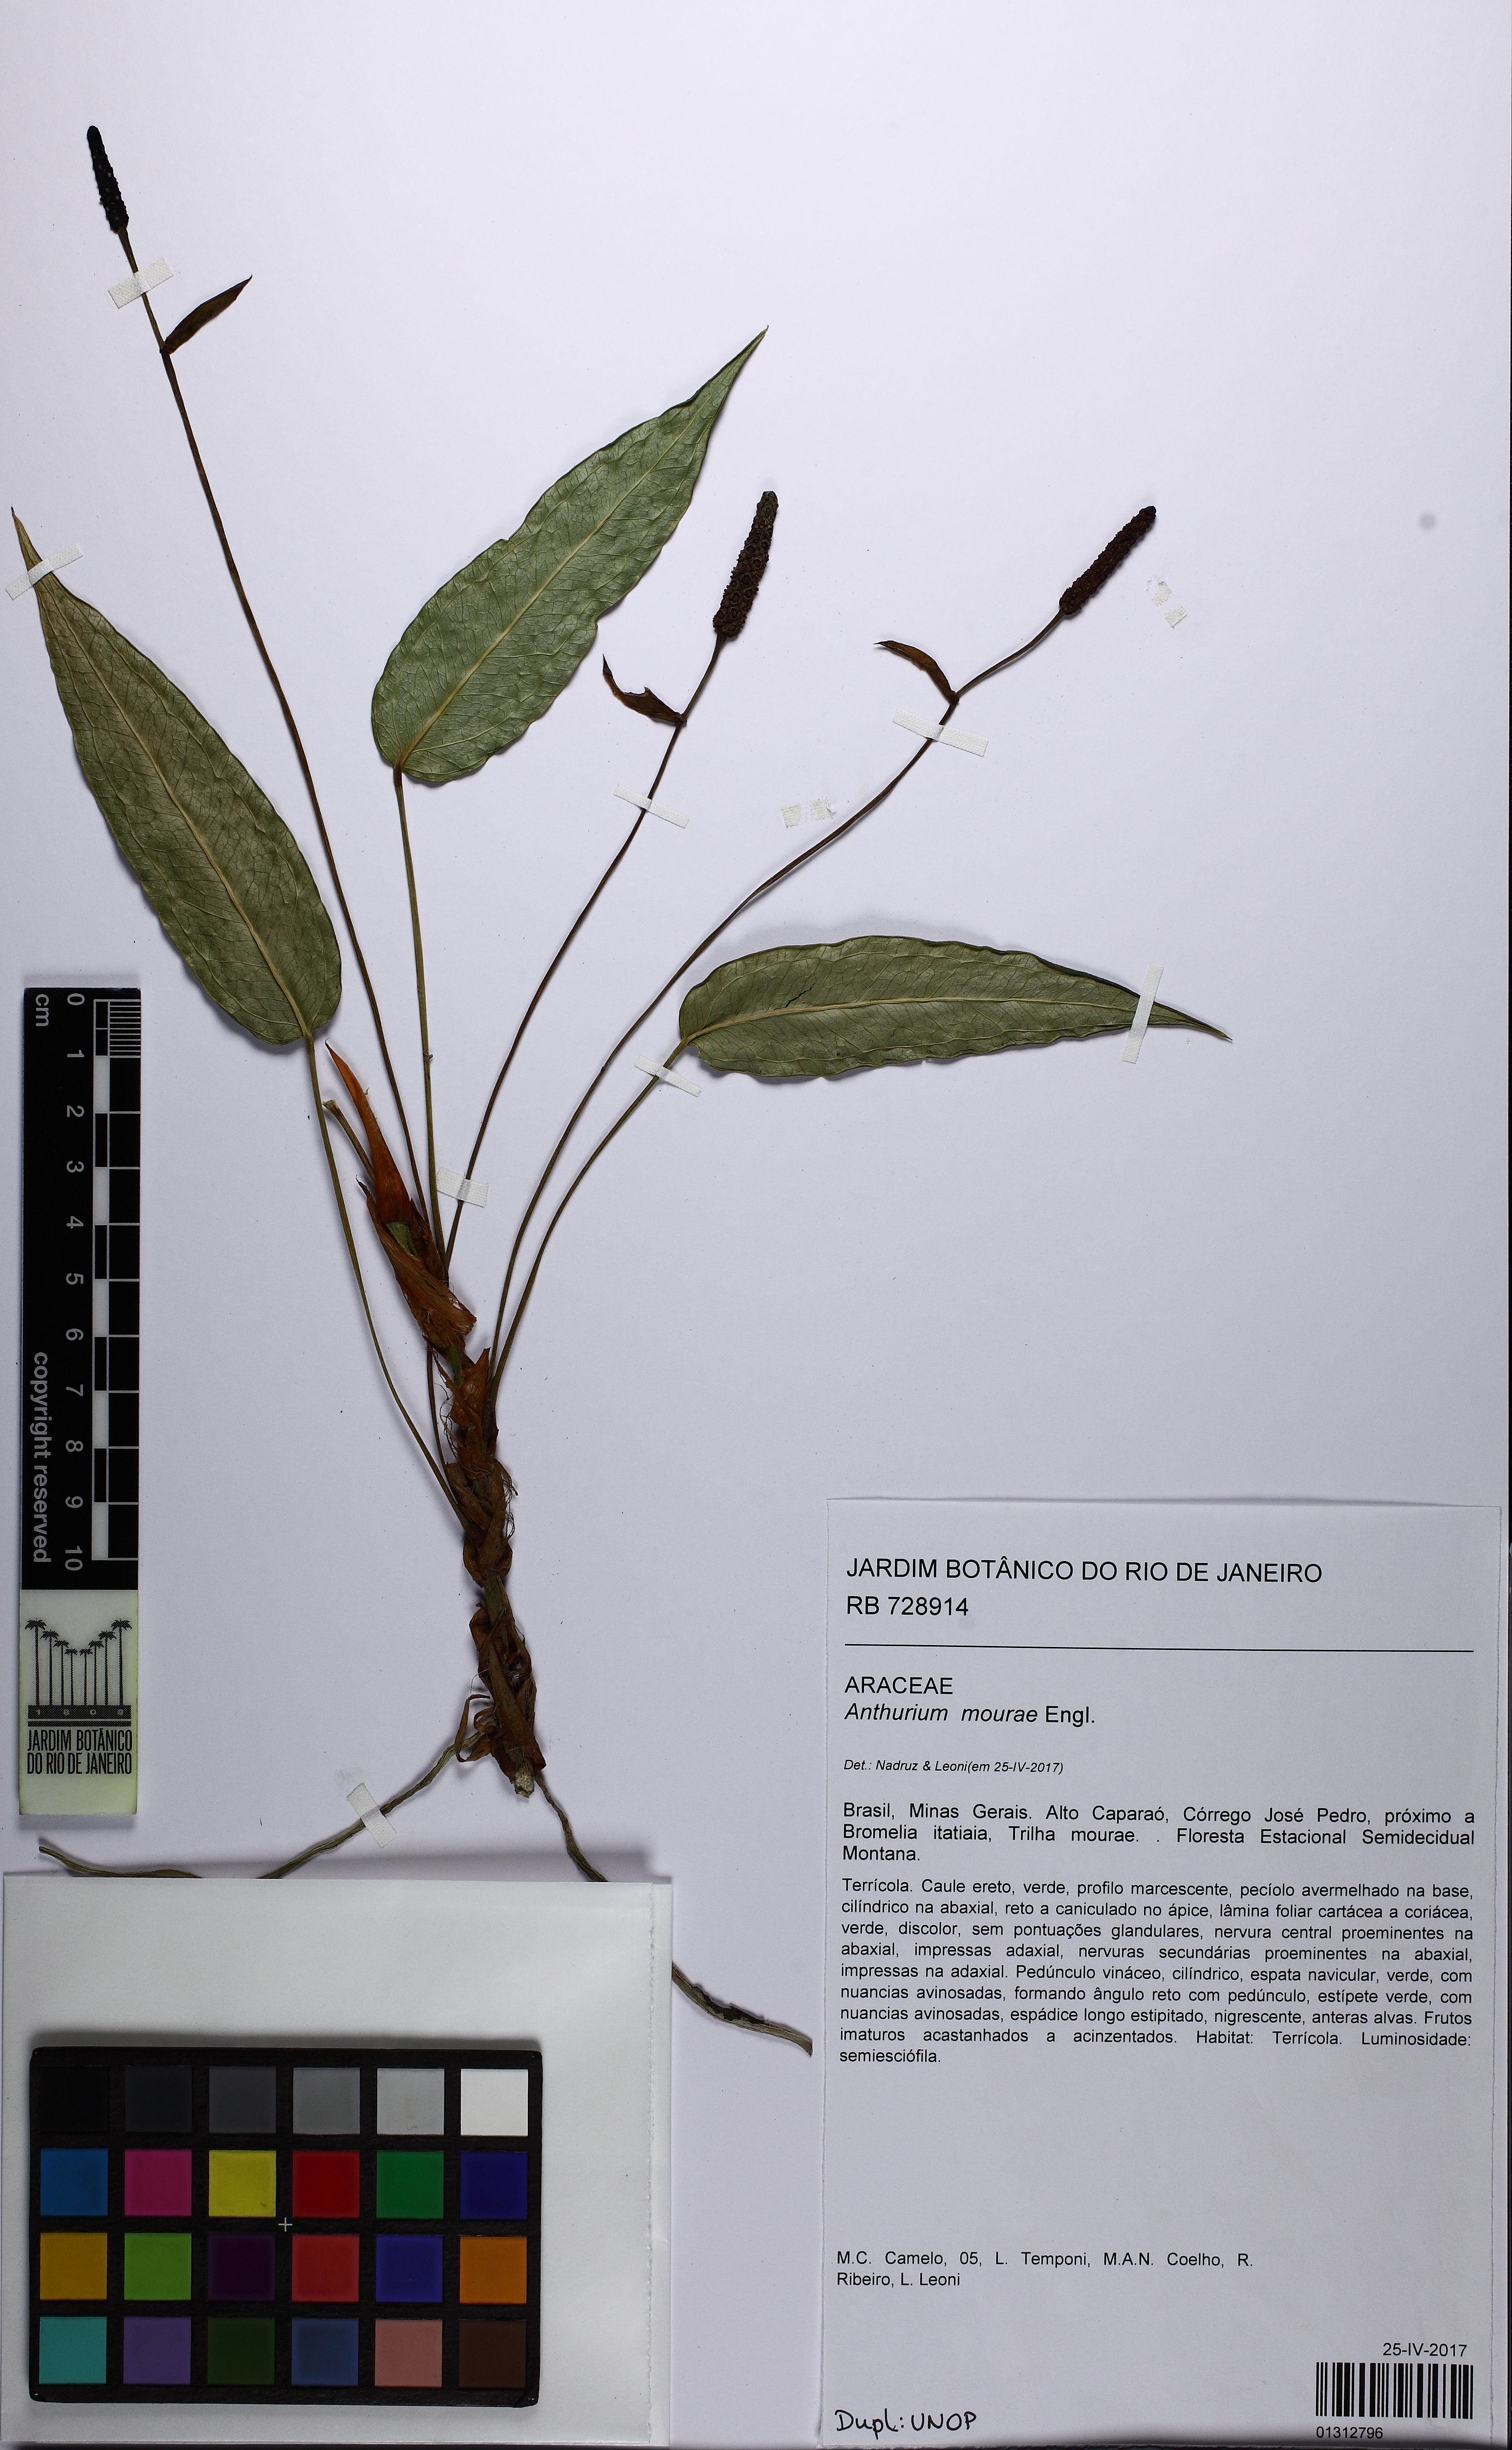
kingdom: Plantae
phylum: Tracheophyta
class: Liliopsida
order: Alismatales
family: Araceae
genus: Anthurium
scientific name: Anthurium mourae
